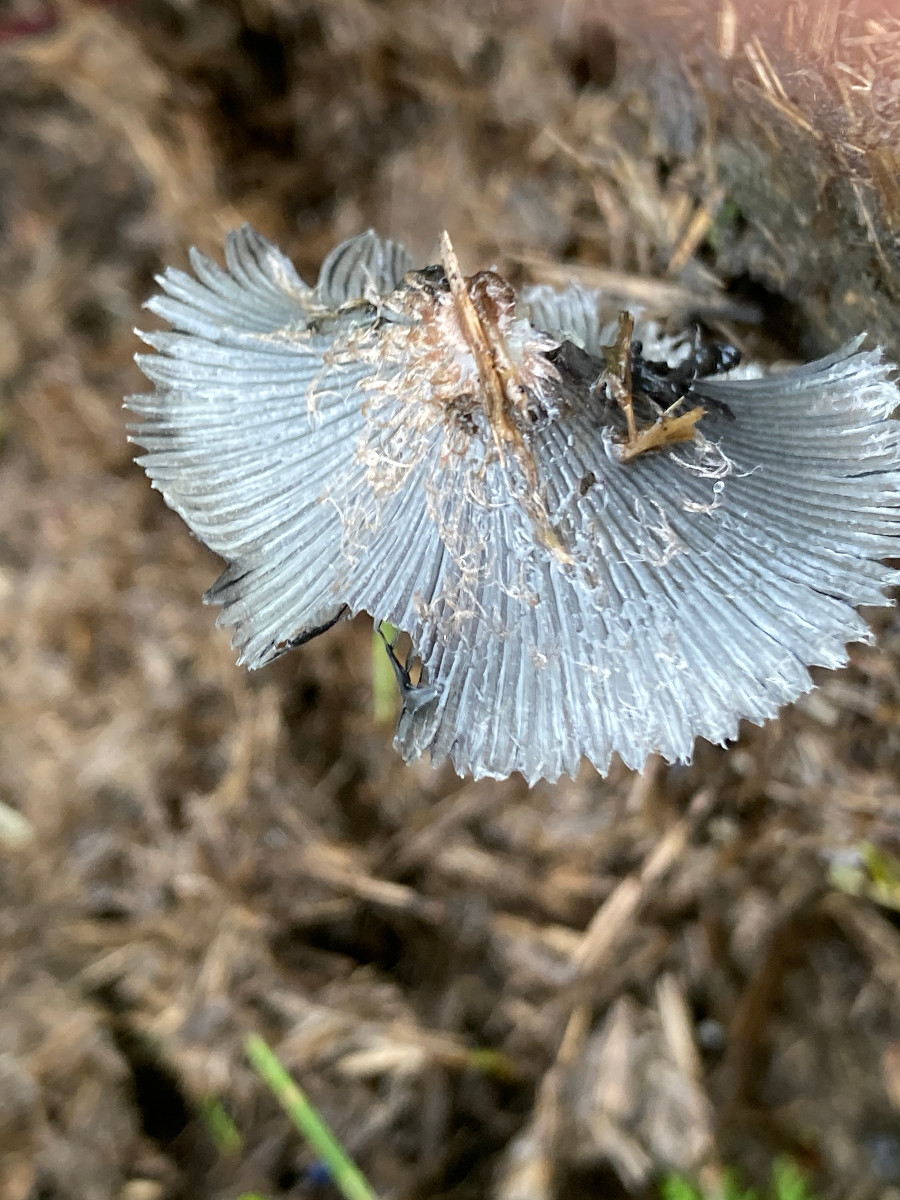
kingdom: Fungi
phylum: Basidiomycota
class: Agaricomycetes
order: Agaricales
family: Psathyrellaceae
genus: Coprinopsis
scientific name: Coprinopsis
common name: blækhat
